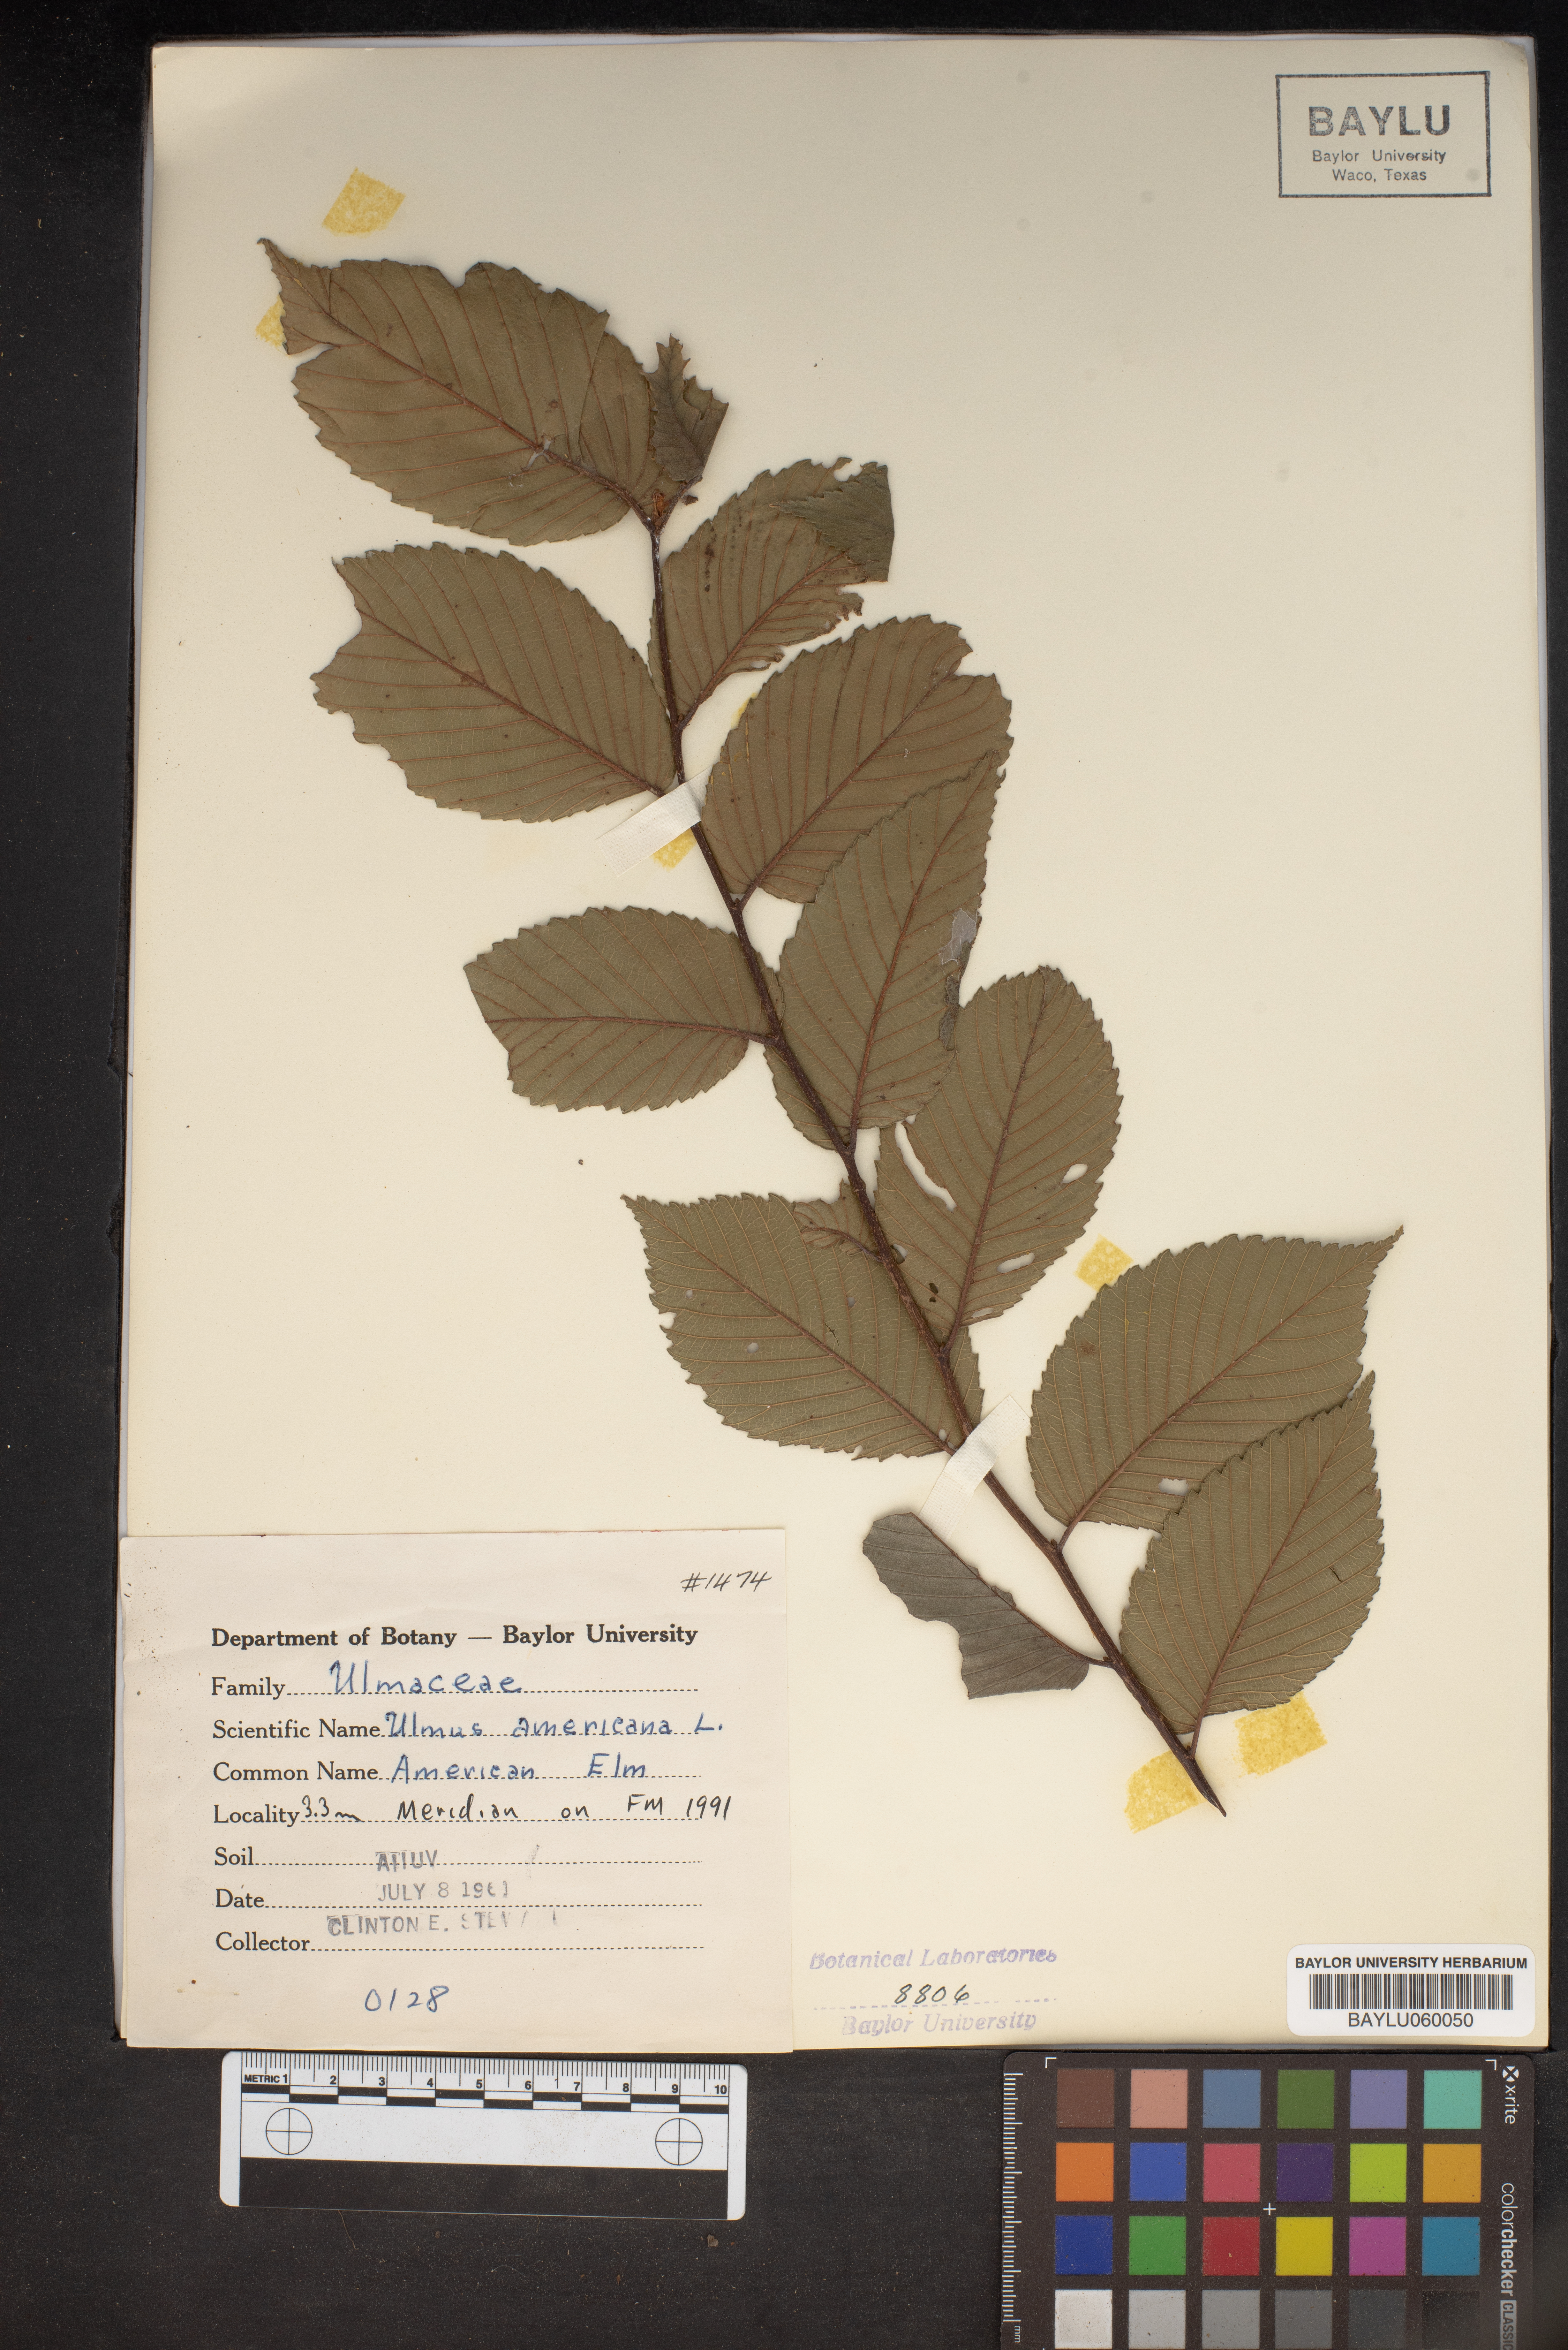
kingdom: Plantae
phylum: Tracheophyta
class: Magnoliopsida
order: Rosales
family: Ulmaceae
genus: Ulmus
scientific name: Ulmus americana
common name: American elm
